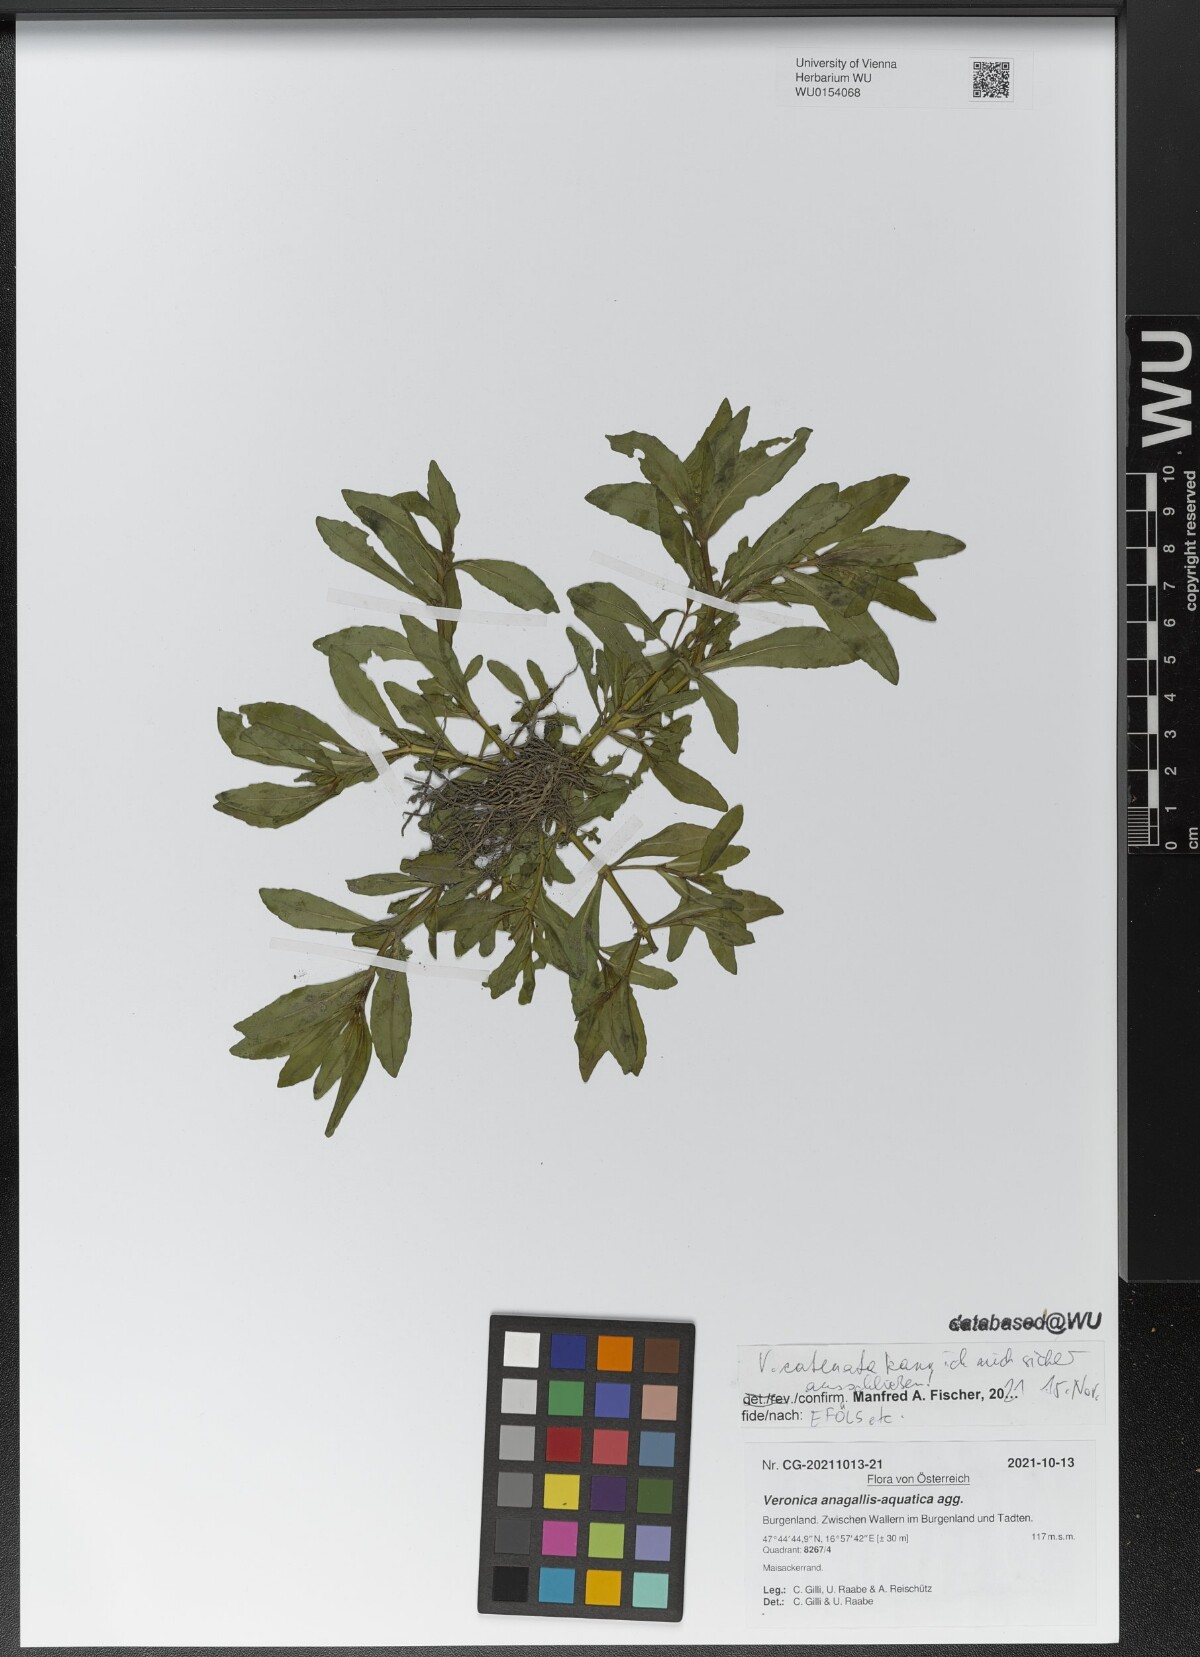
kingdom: Plantae
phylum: Tracheophyta
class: Magnoliopsida
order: Lamiales
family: Plantaginaceae
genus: Veronica
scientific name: Veronica anagallis-aquatica
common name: Water speedwell
